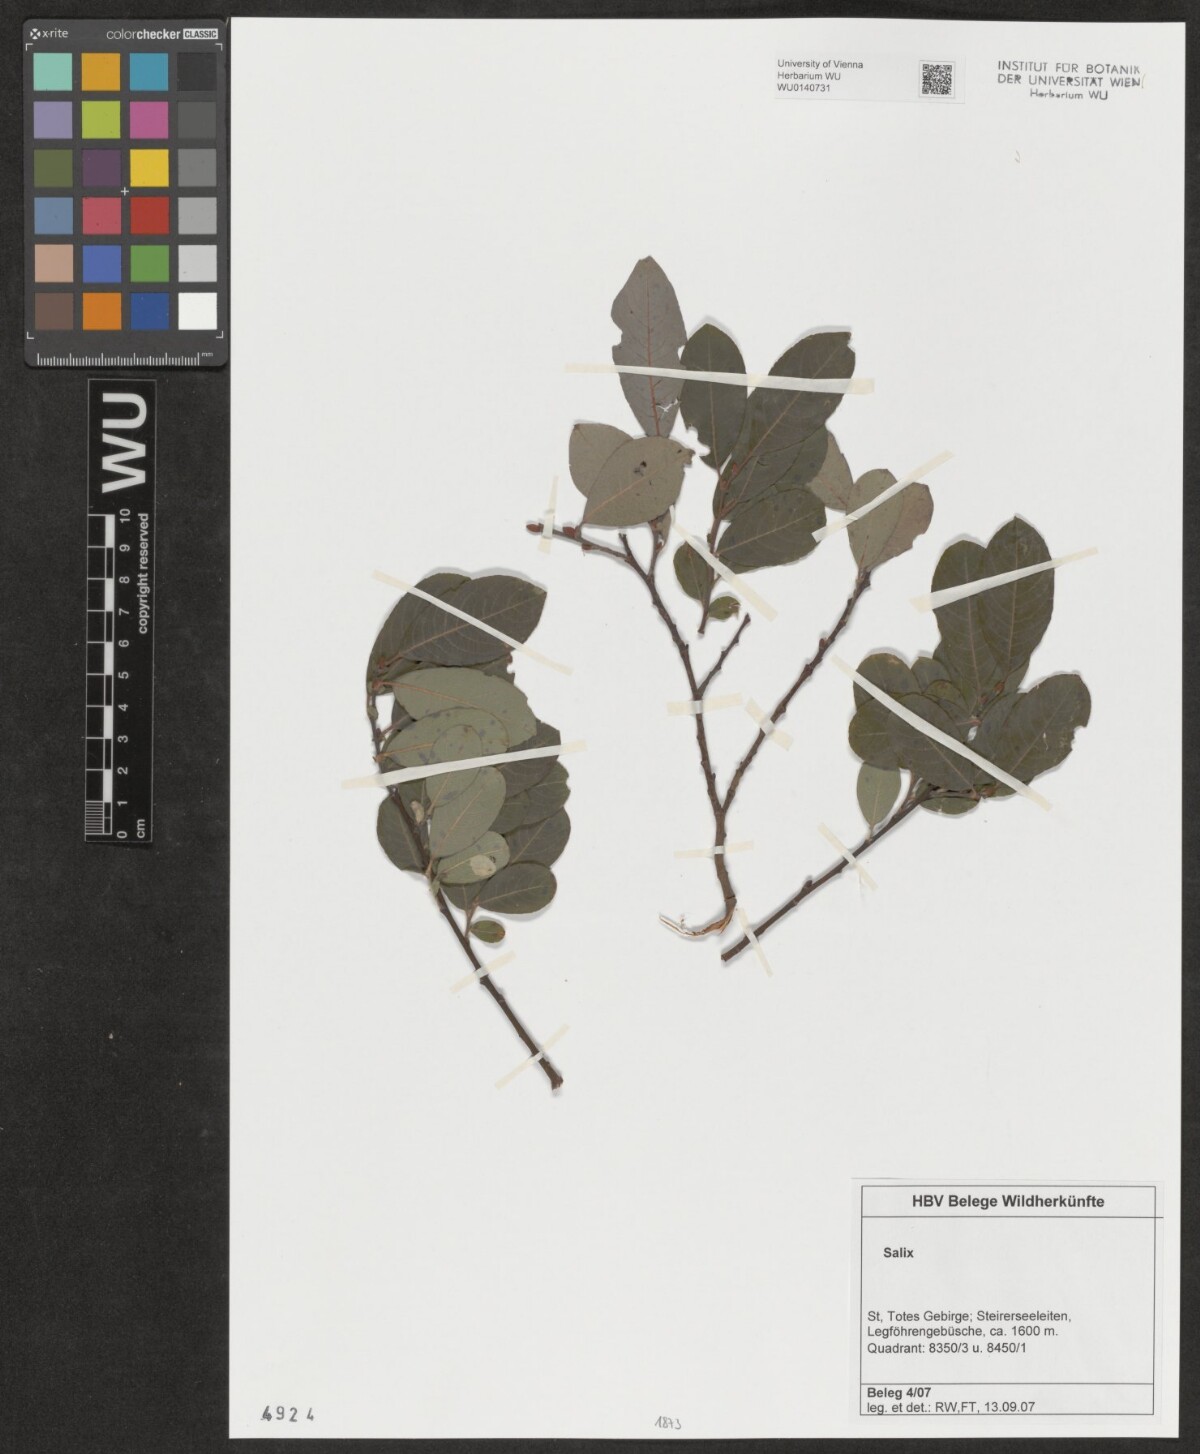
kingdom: Plantae
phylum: Tracheophyta
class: Magnoliopsida
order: Malpighiales
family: Salicaceae
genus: Salix
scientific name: Salix
